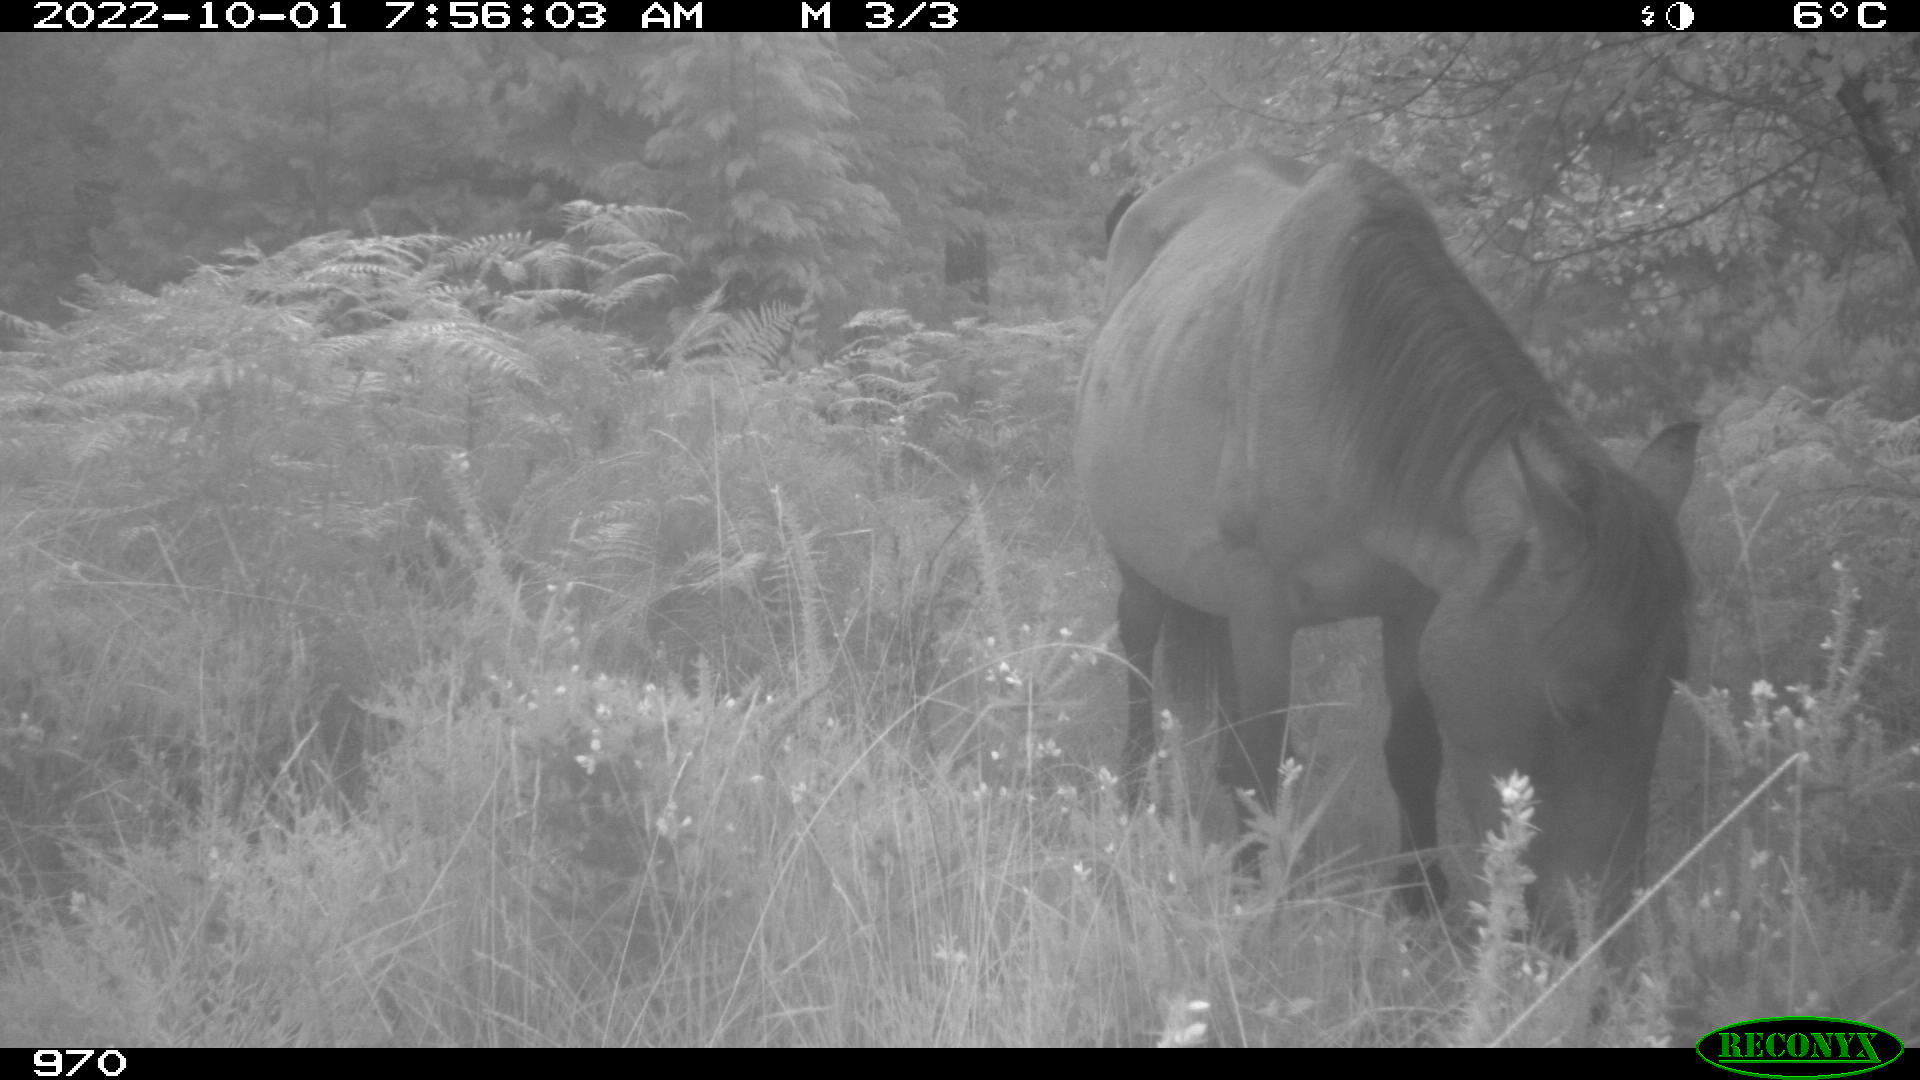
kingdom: Animalia
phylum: Chordata
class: Mammalia
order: Perissodactyla
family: Equidae
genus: Equus
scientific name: Equus caballus
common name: Horse
